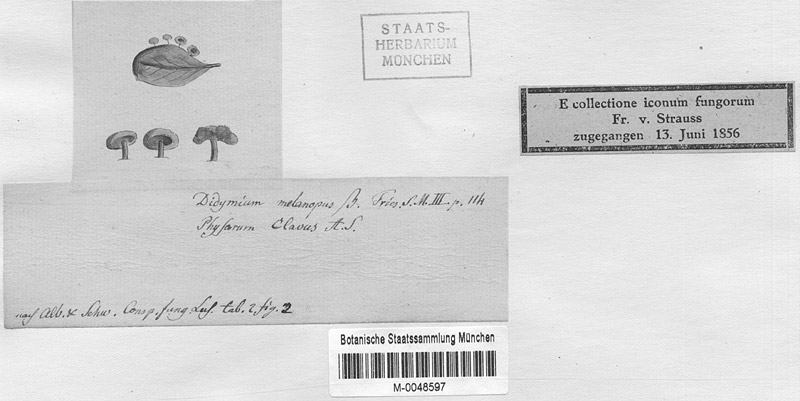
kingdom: Protozoa
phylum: Mycetozoa
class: Myxomycetes
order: Physarales
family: Didymiaceae
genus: Didymium
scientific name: Didymium clavus
